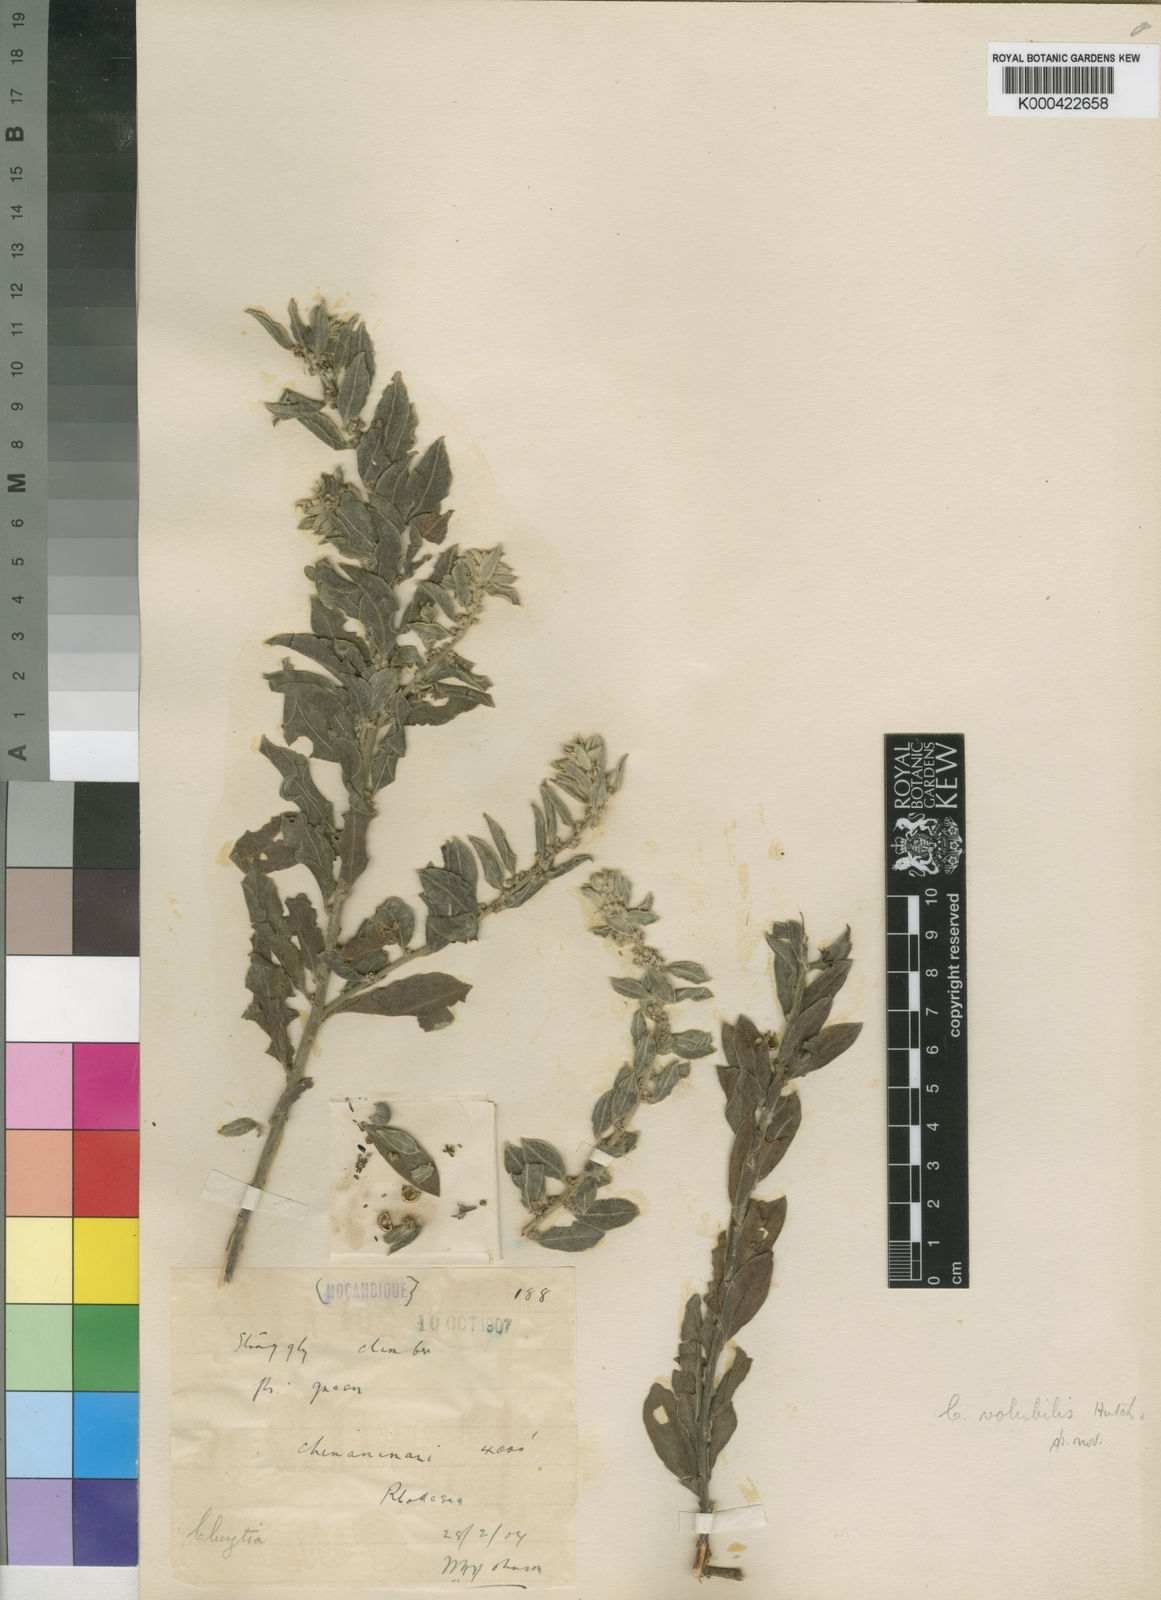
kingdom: Plantae
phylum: Tracheophyta
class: Magnoliopsida
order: Malpighiales
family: Peraceae
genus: Clutia
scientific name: Clutia
